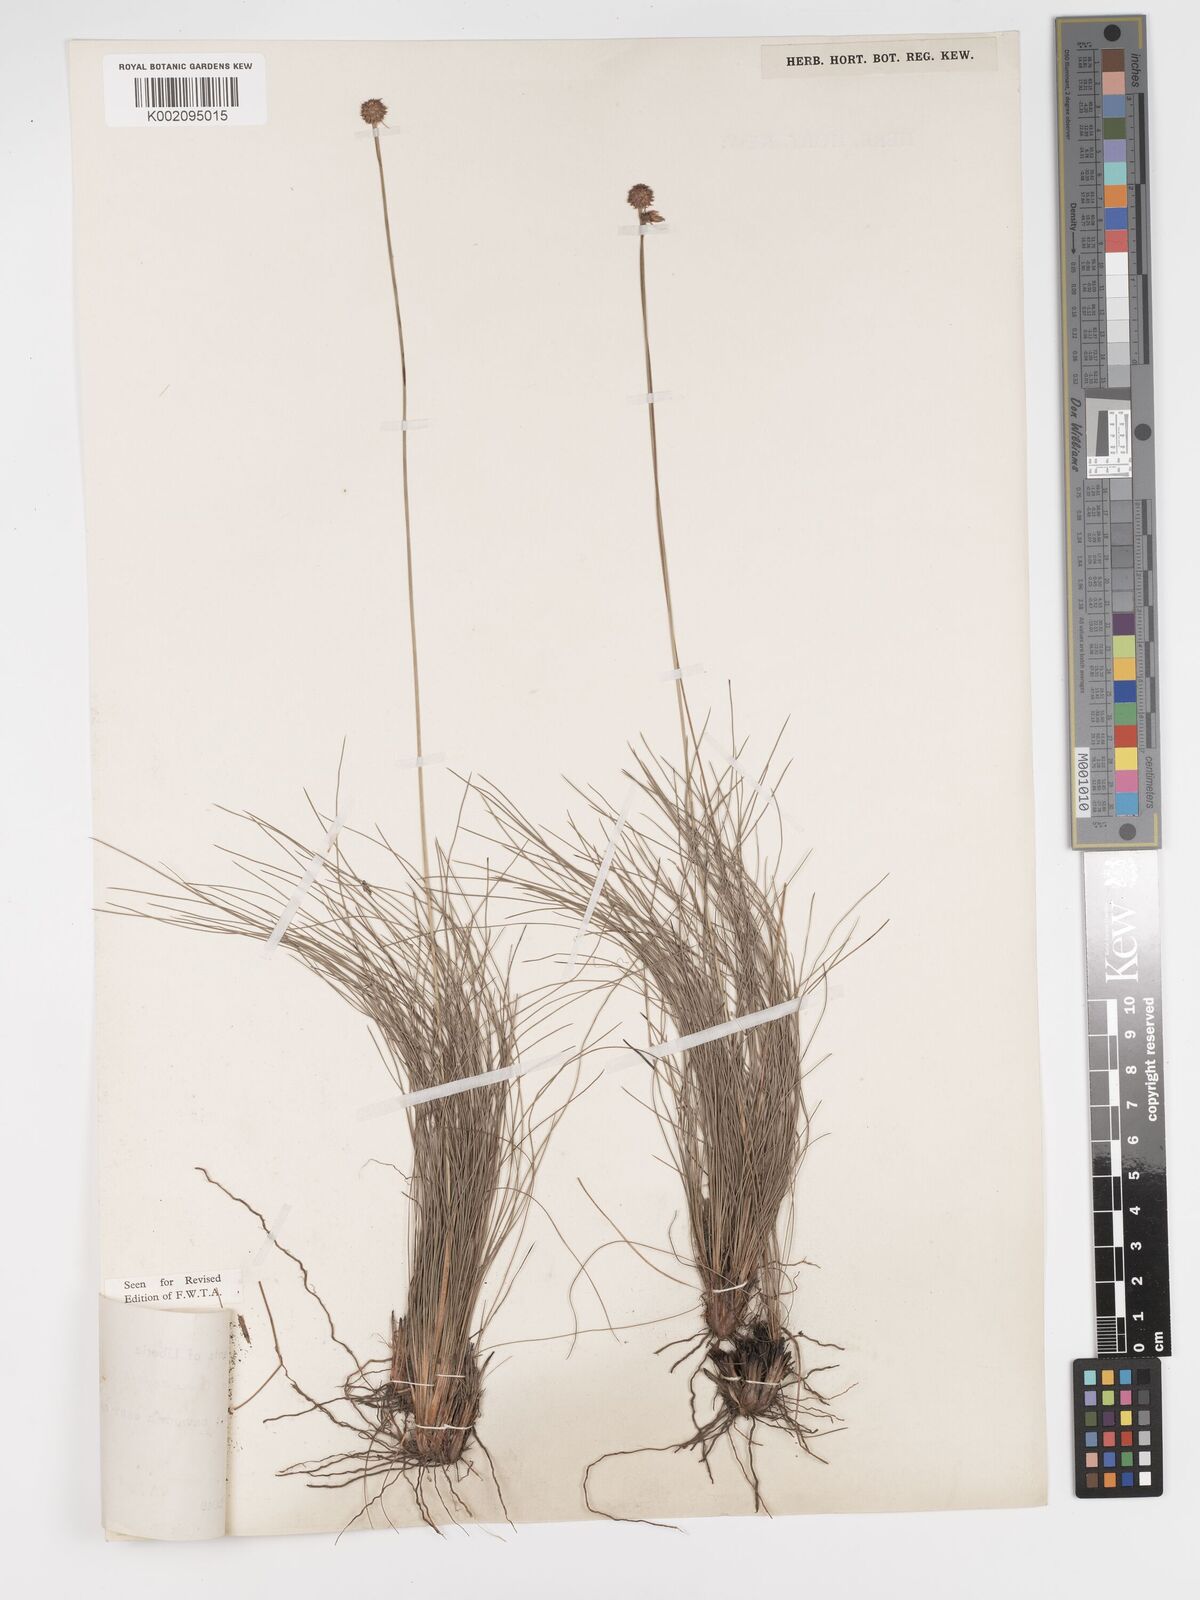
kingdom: Plantae
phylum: Tracheophyta
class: Liliopsida
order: Poales
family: Cyperaceae
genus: Bulbostylis
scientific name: Bulbostylis laniceps
